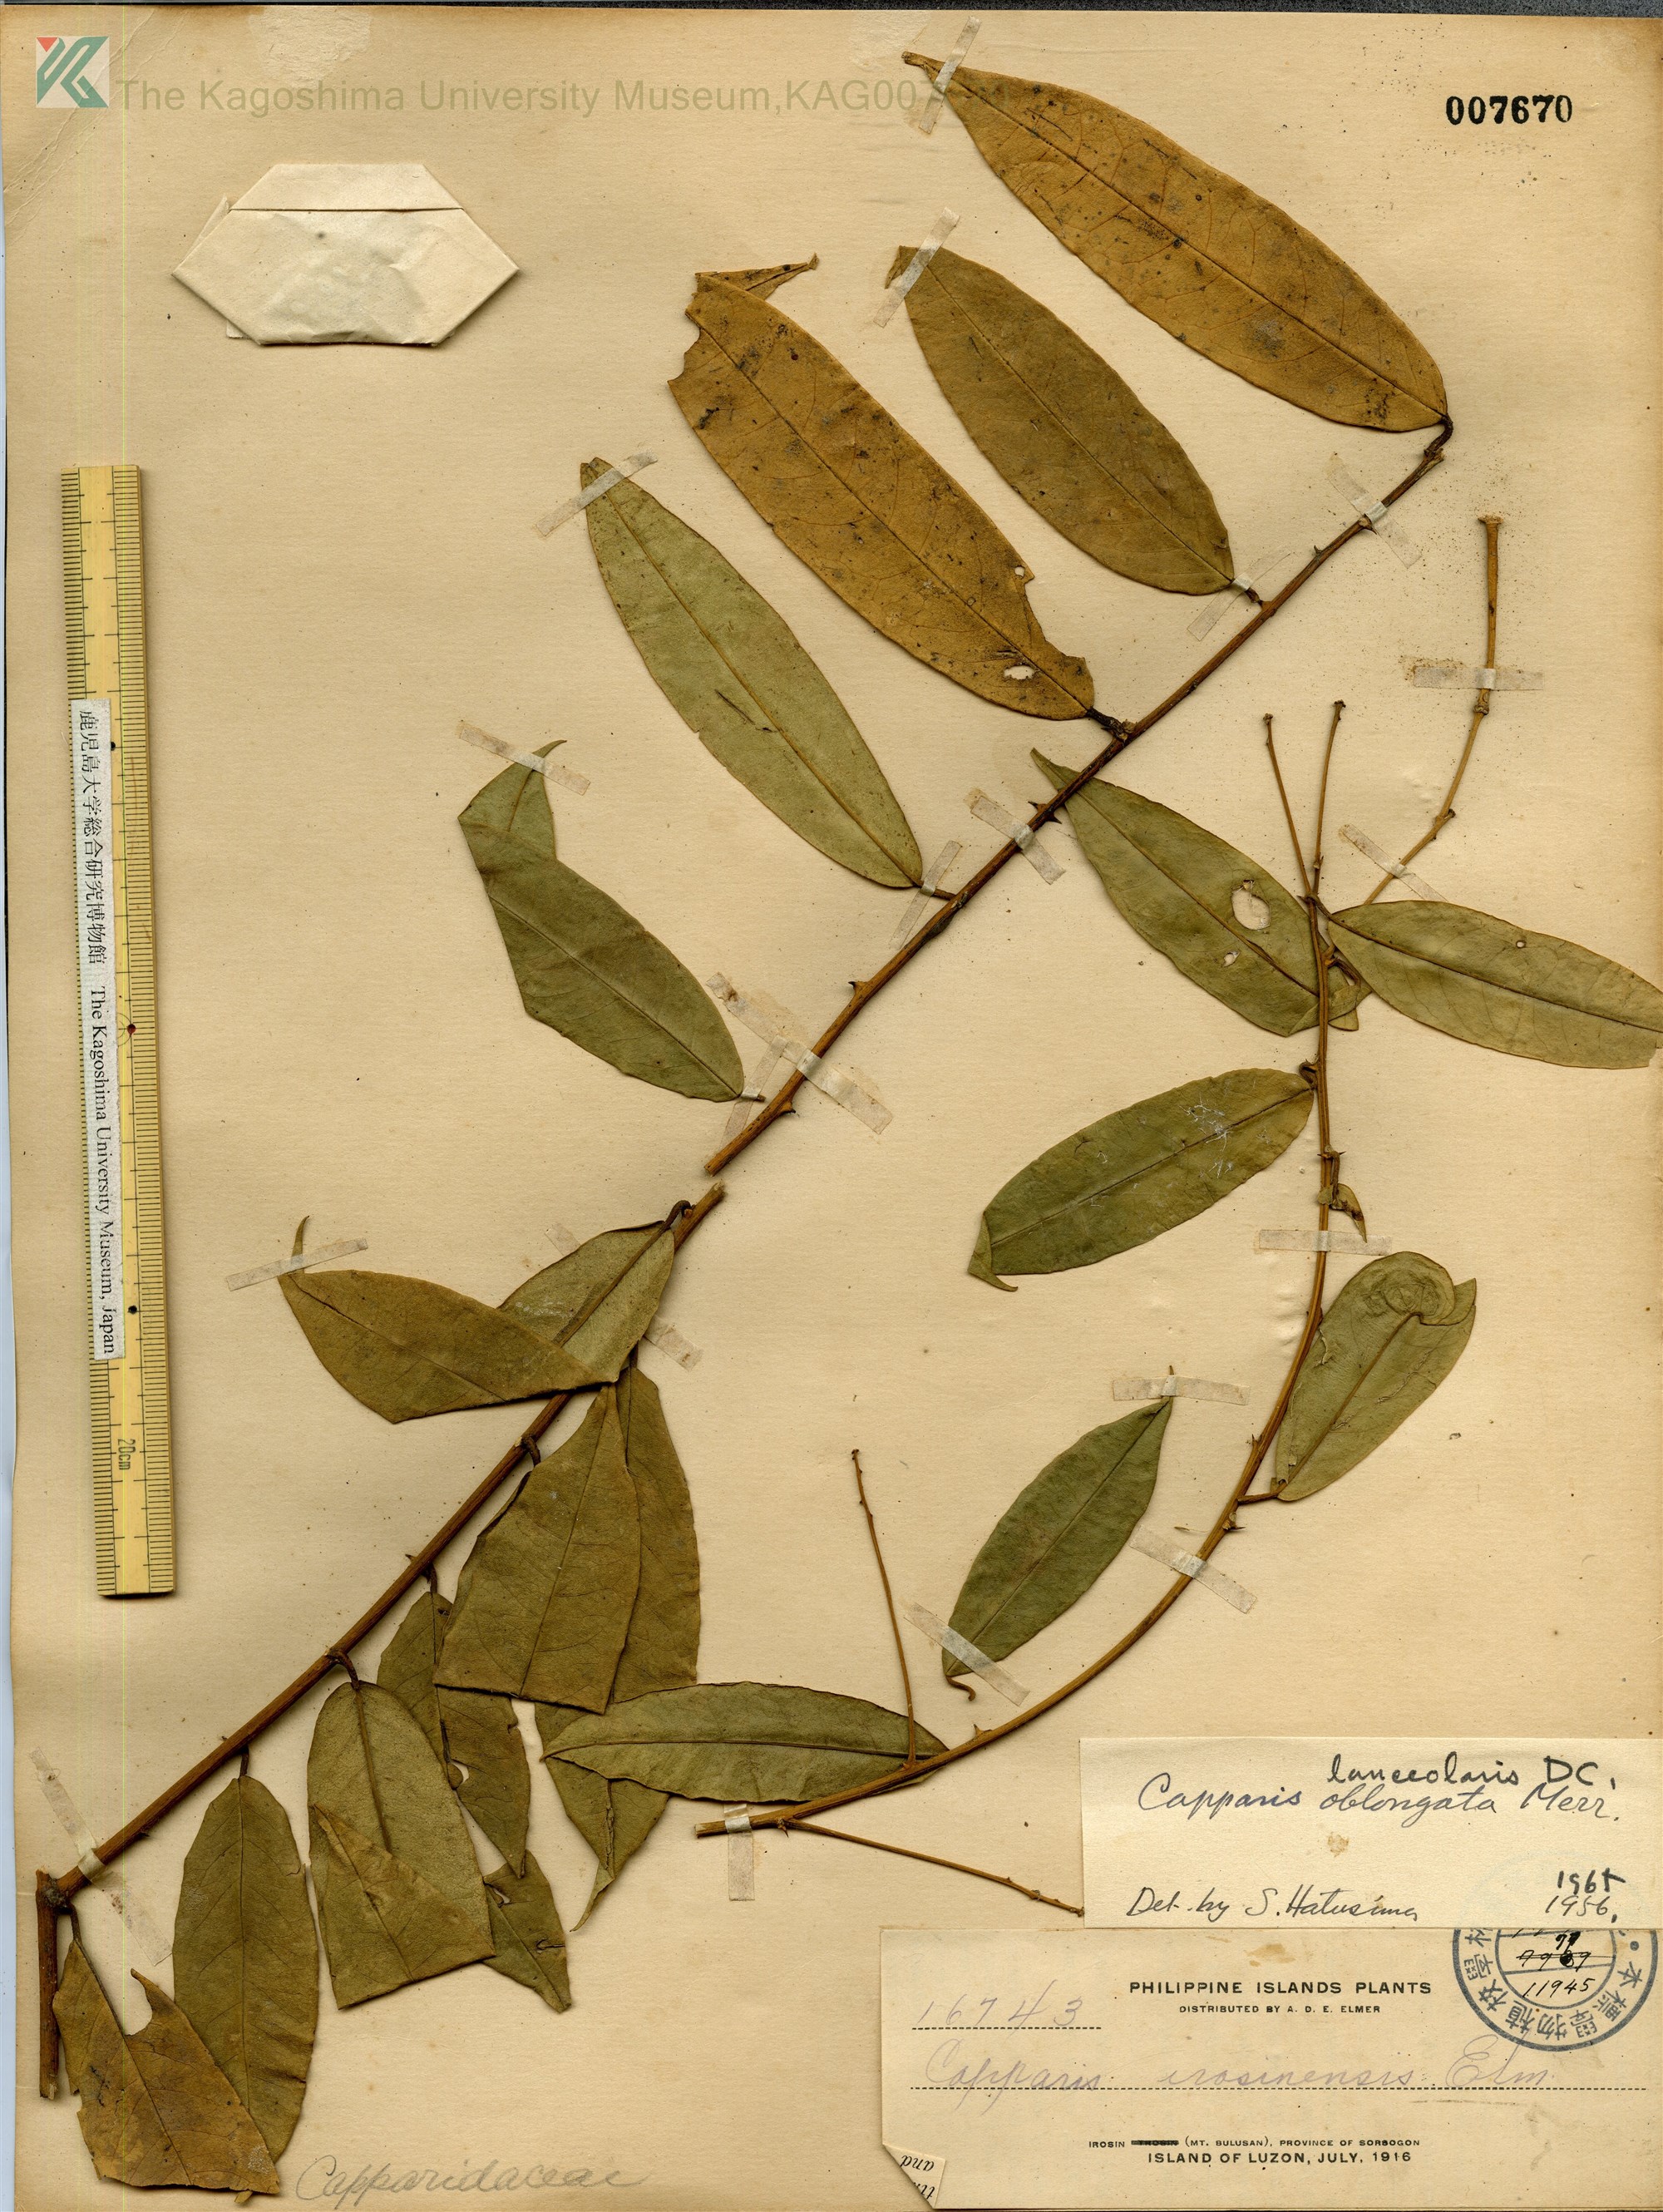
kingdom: Plantae
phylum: Tracheophyta
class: Magnoliopsida
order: Brassicales
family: Capparaceae
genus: Capparis
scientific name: Capparis lanceolaris
